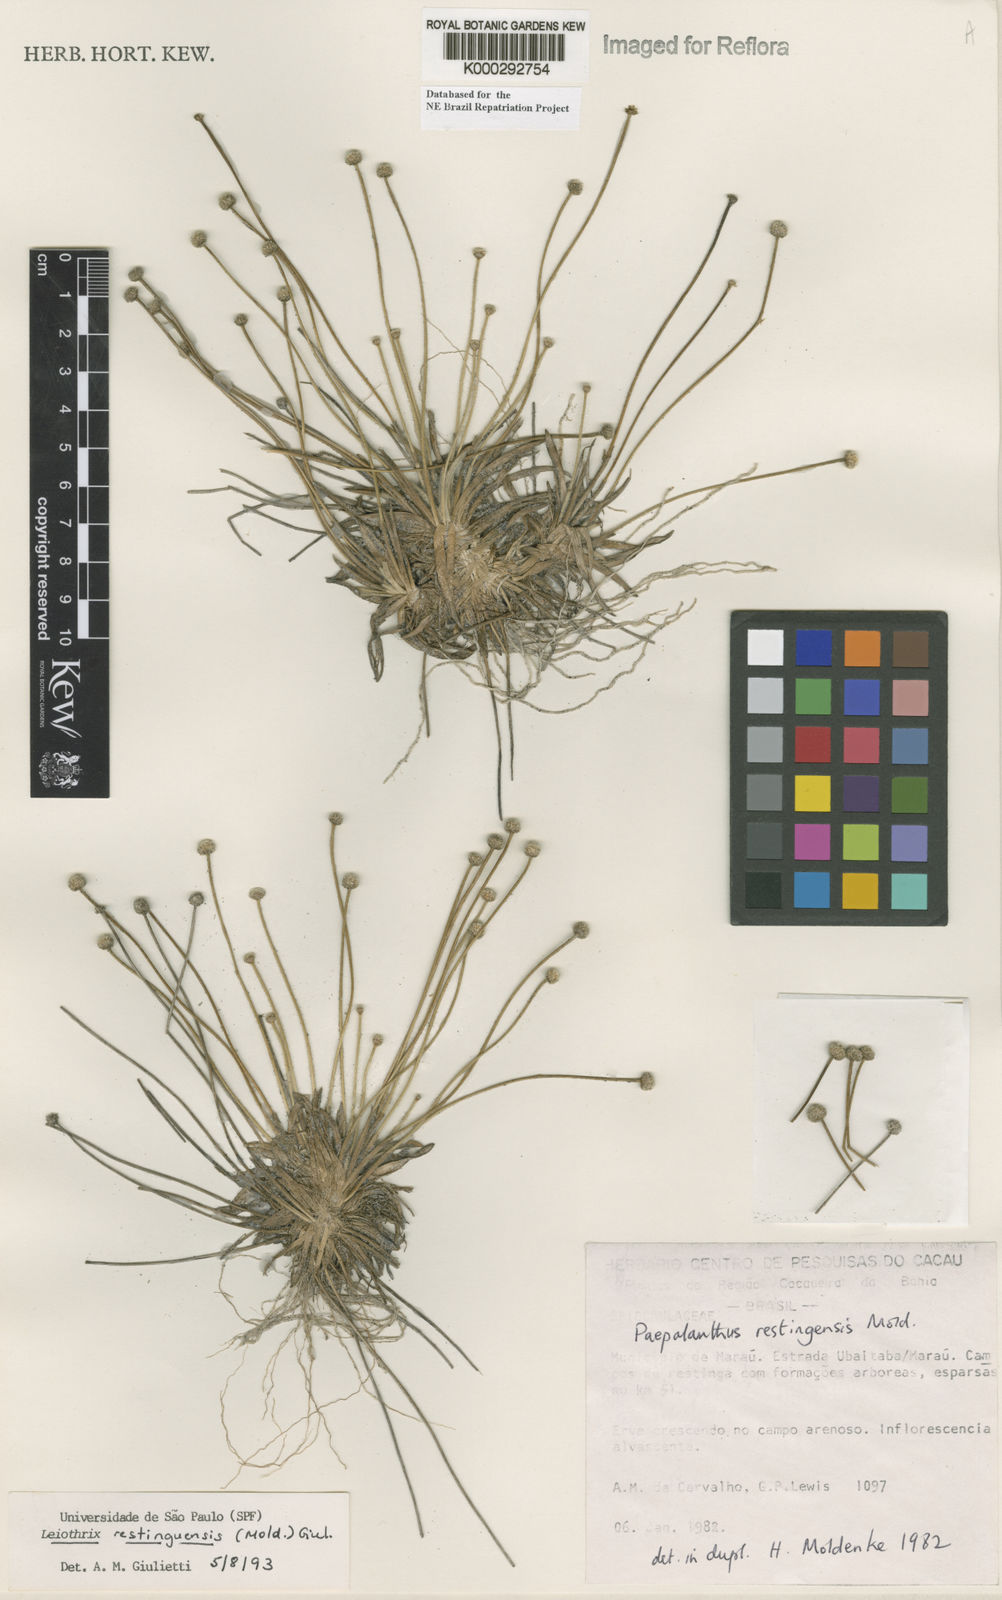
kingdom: Plantae
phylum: Tracheophyta
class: Liliopsida
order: Poales
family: Eriocaulaceae
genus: Leiothrix
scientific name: Leiothrix
